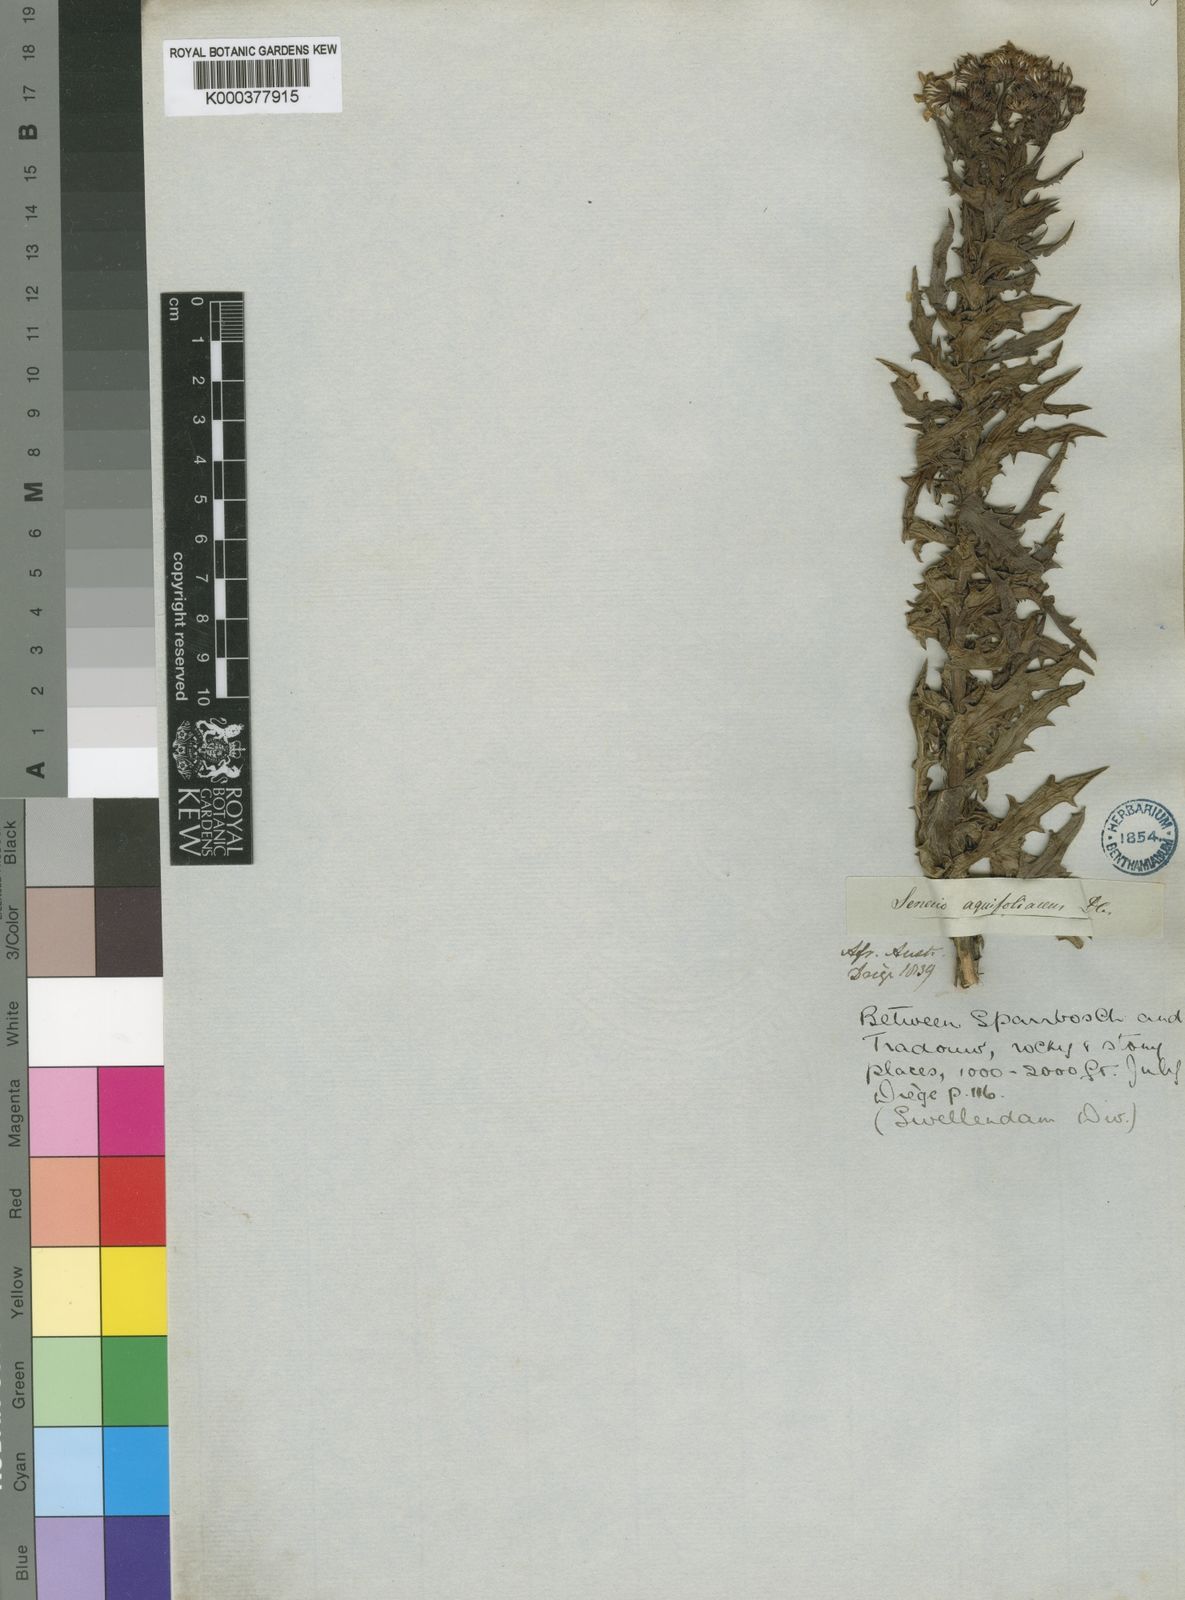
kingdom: Plantae
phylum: Tracheophyta
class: Magnoliopsida
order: Asterales
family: Asteraceae
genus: Senecio
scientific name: Senecio aquifoliaceus
